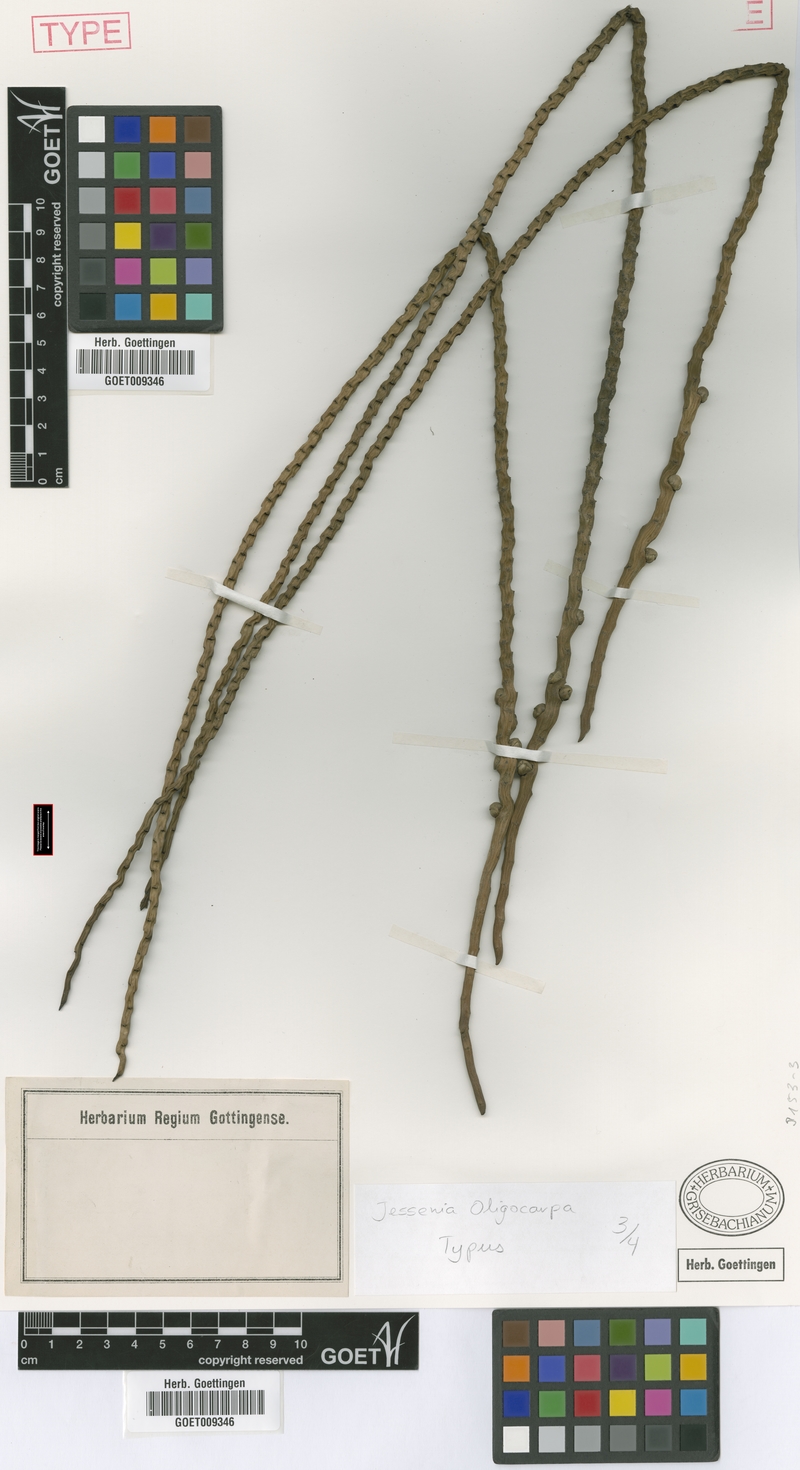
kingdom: Plantae
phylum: Tracheophyta
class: Liliopsida
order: Arecales
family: Arecaceae
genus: Oenocarpus
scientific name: Oenocarpus bataua
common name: Bataua palm
